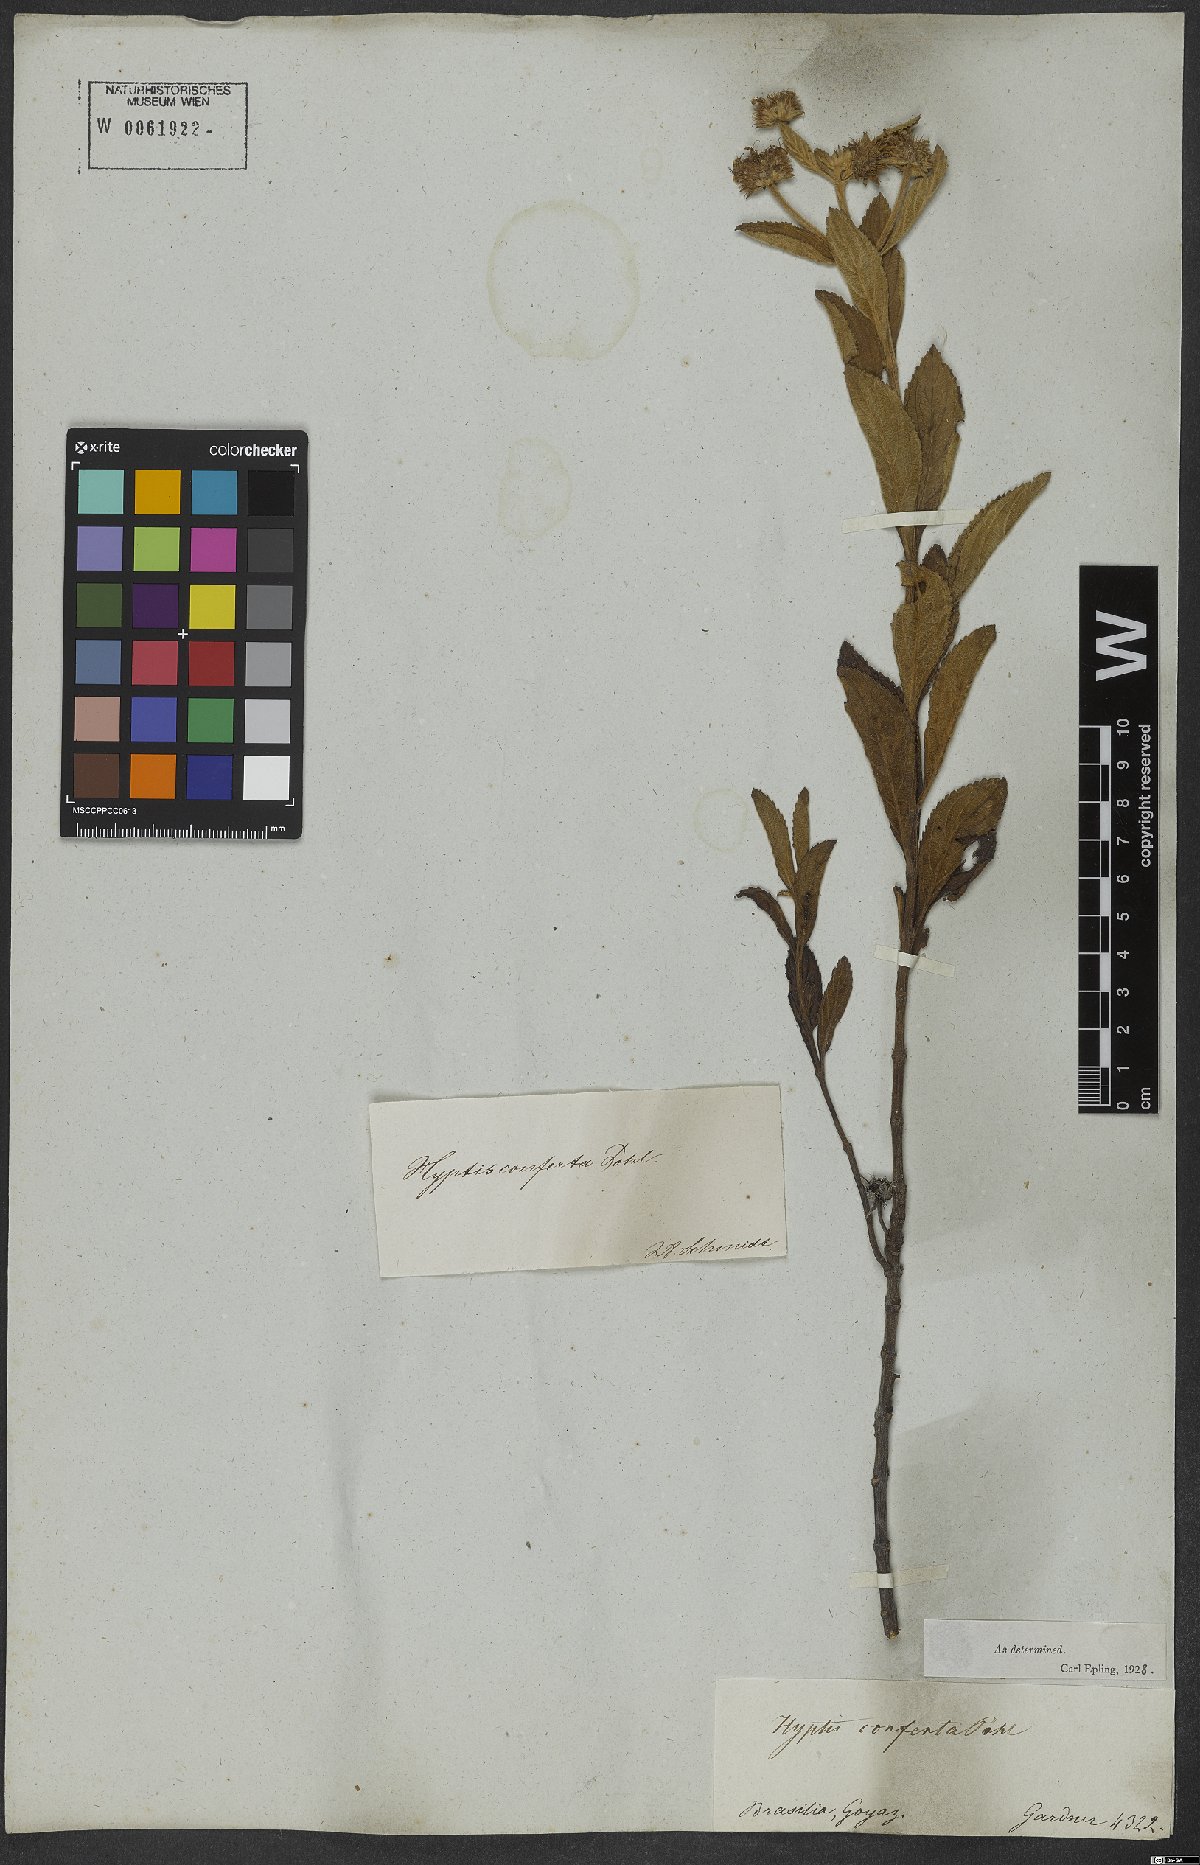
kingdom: Plantae
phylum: Tracheophyta
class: Magnoliopsida
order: Lamiales
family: Lamiaceae
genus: Hyptis
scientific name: Hyptis conferta
